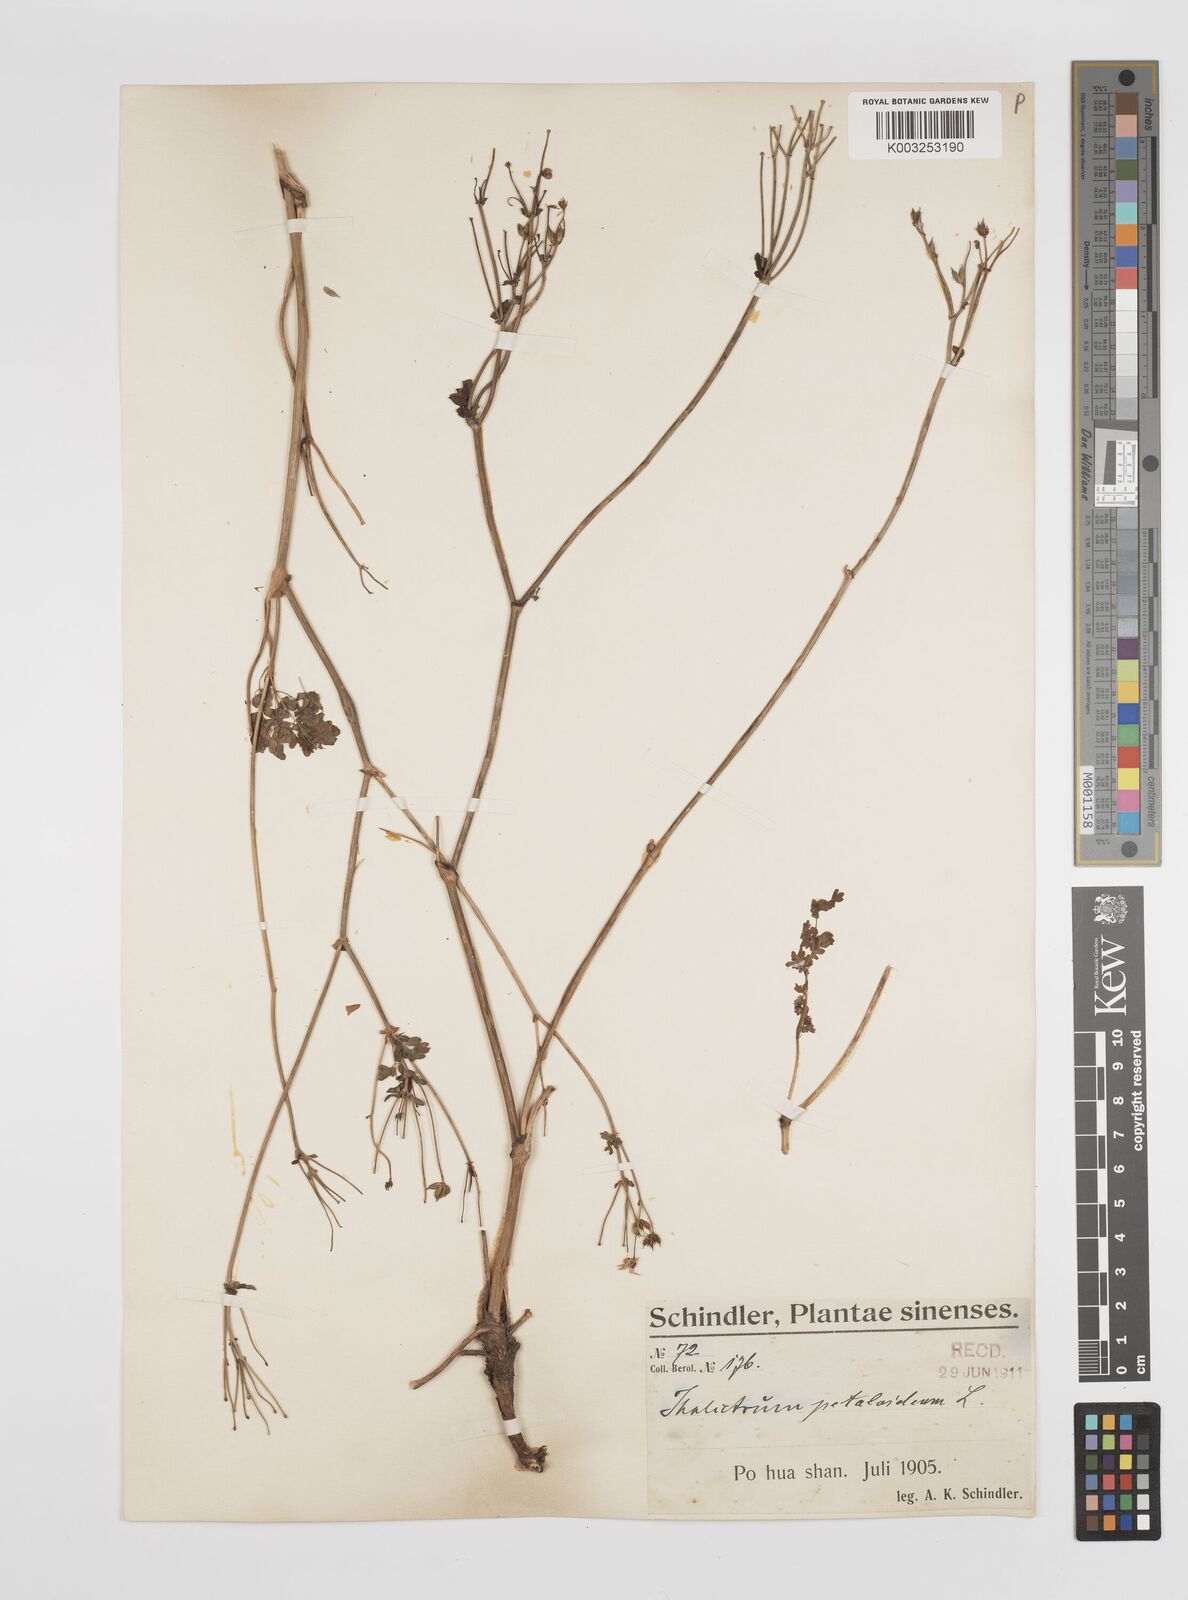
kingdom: Plantae
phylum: Tracheophyta
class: Magnoliopsida
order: Ranunculales
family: Ranunculaceae
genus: Thalictrum
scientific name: Thalictrum petaloideum
